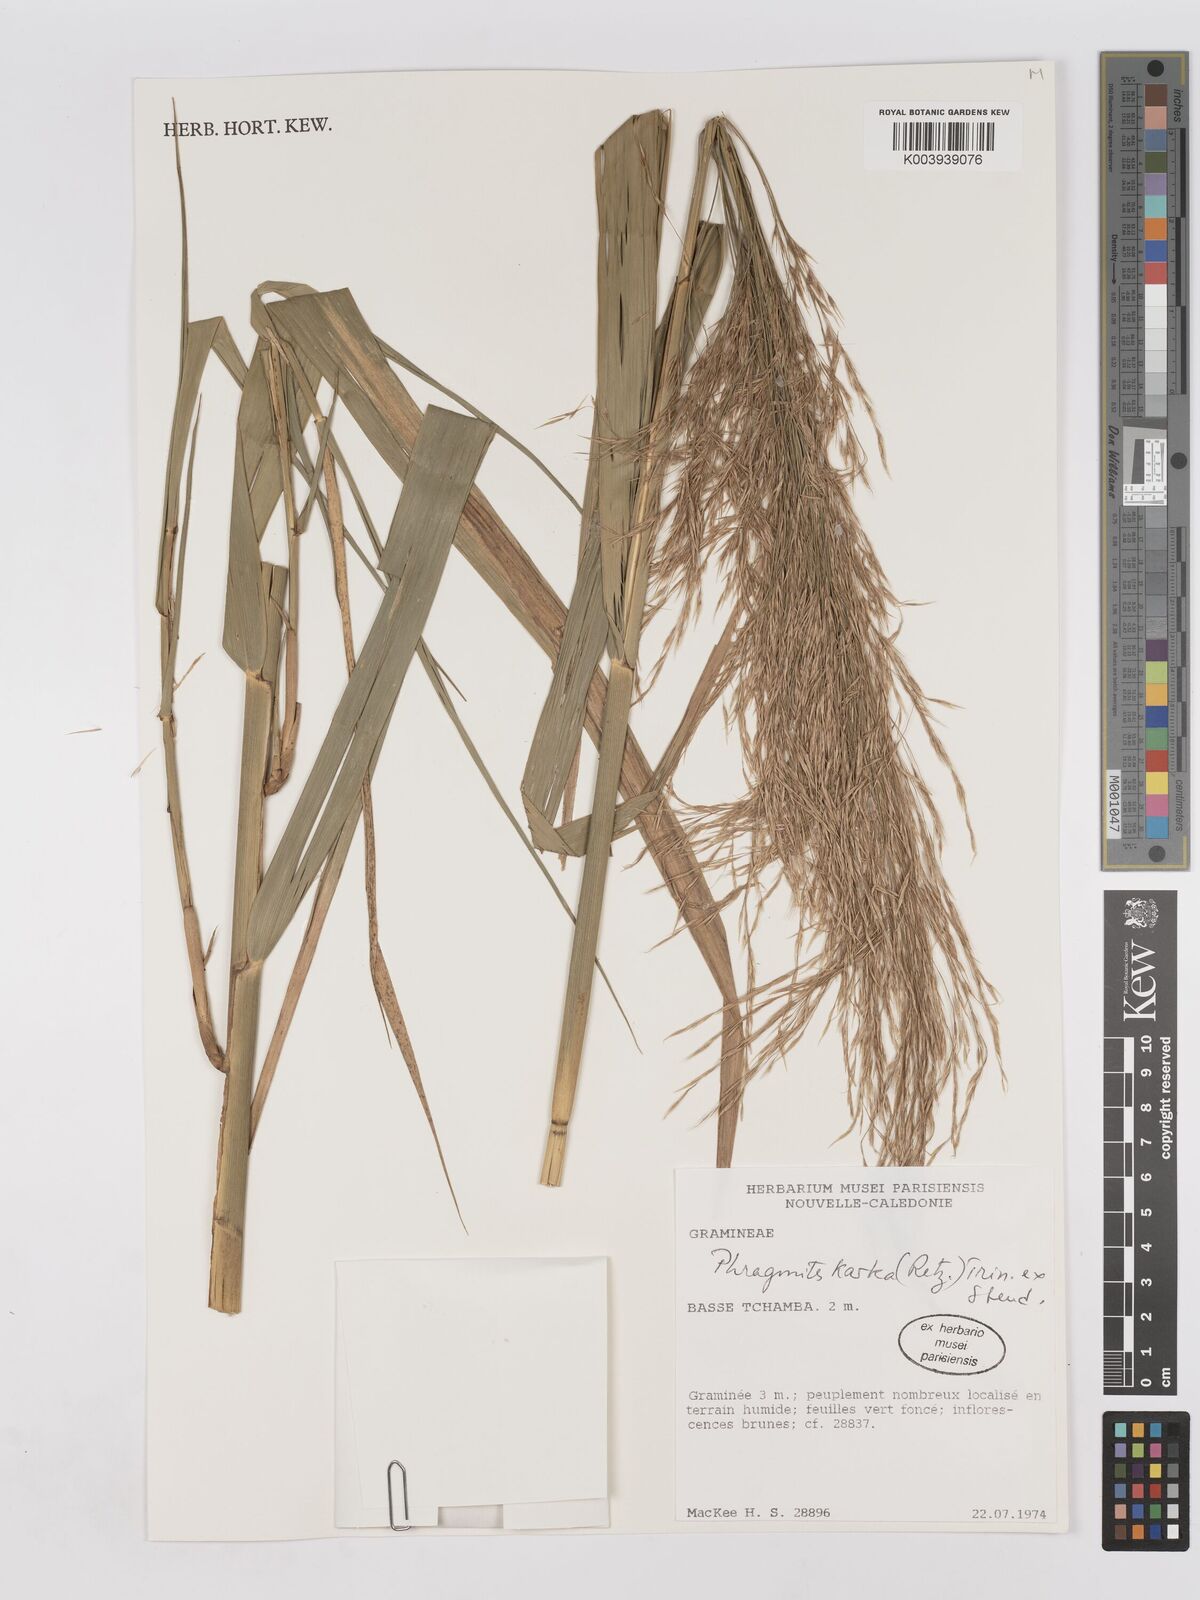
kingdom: Plantae
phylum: Tracheophyta
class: Liliopsida
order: Poales
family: Poaceae
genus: Phragmites
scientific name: Phragmites karka
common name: Tropical reed
